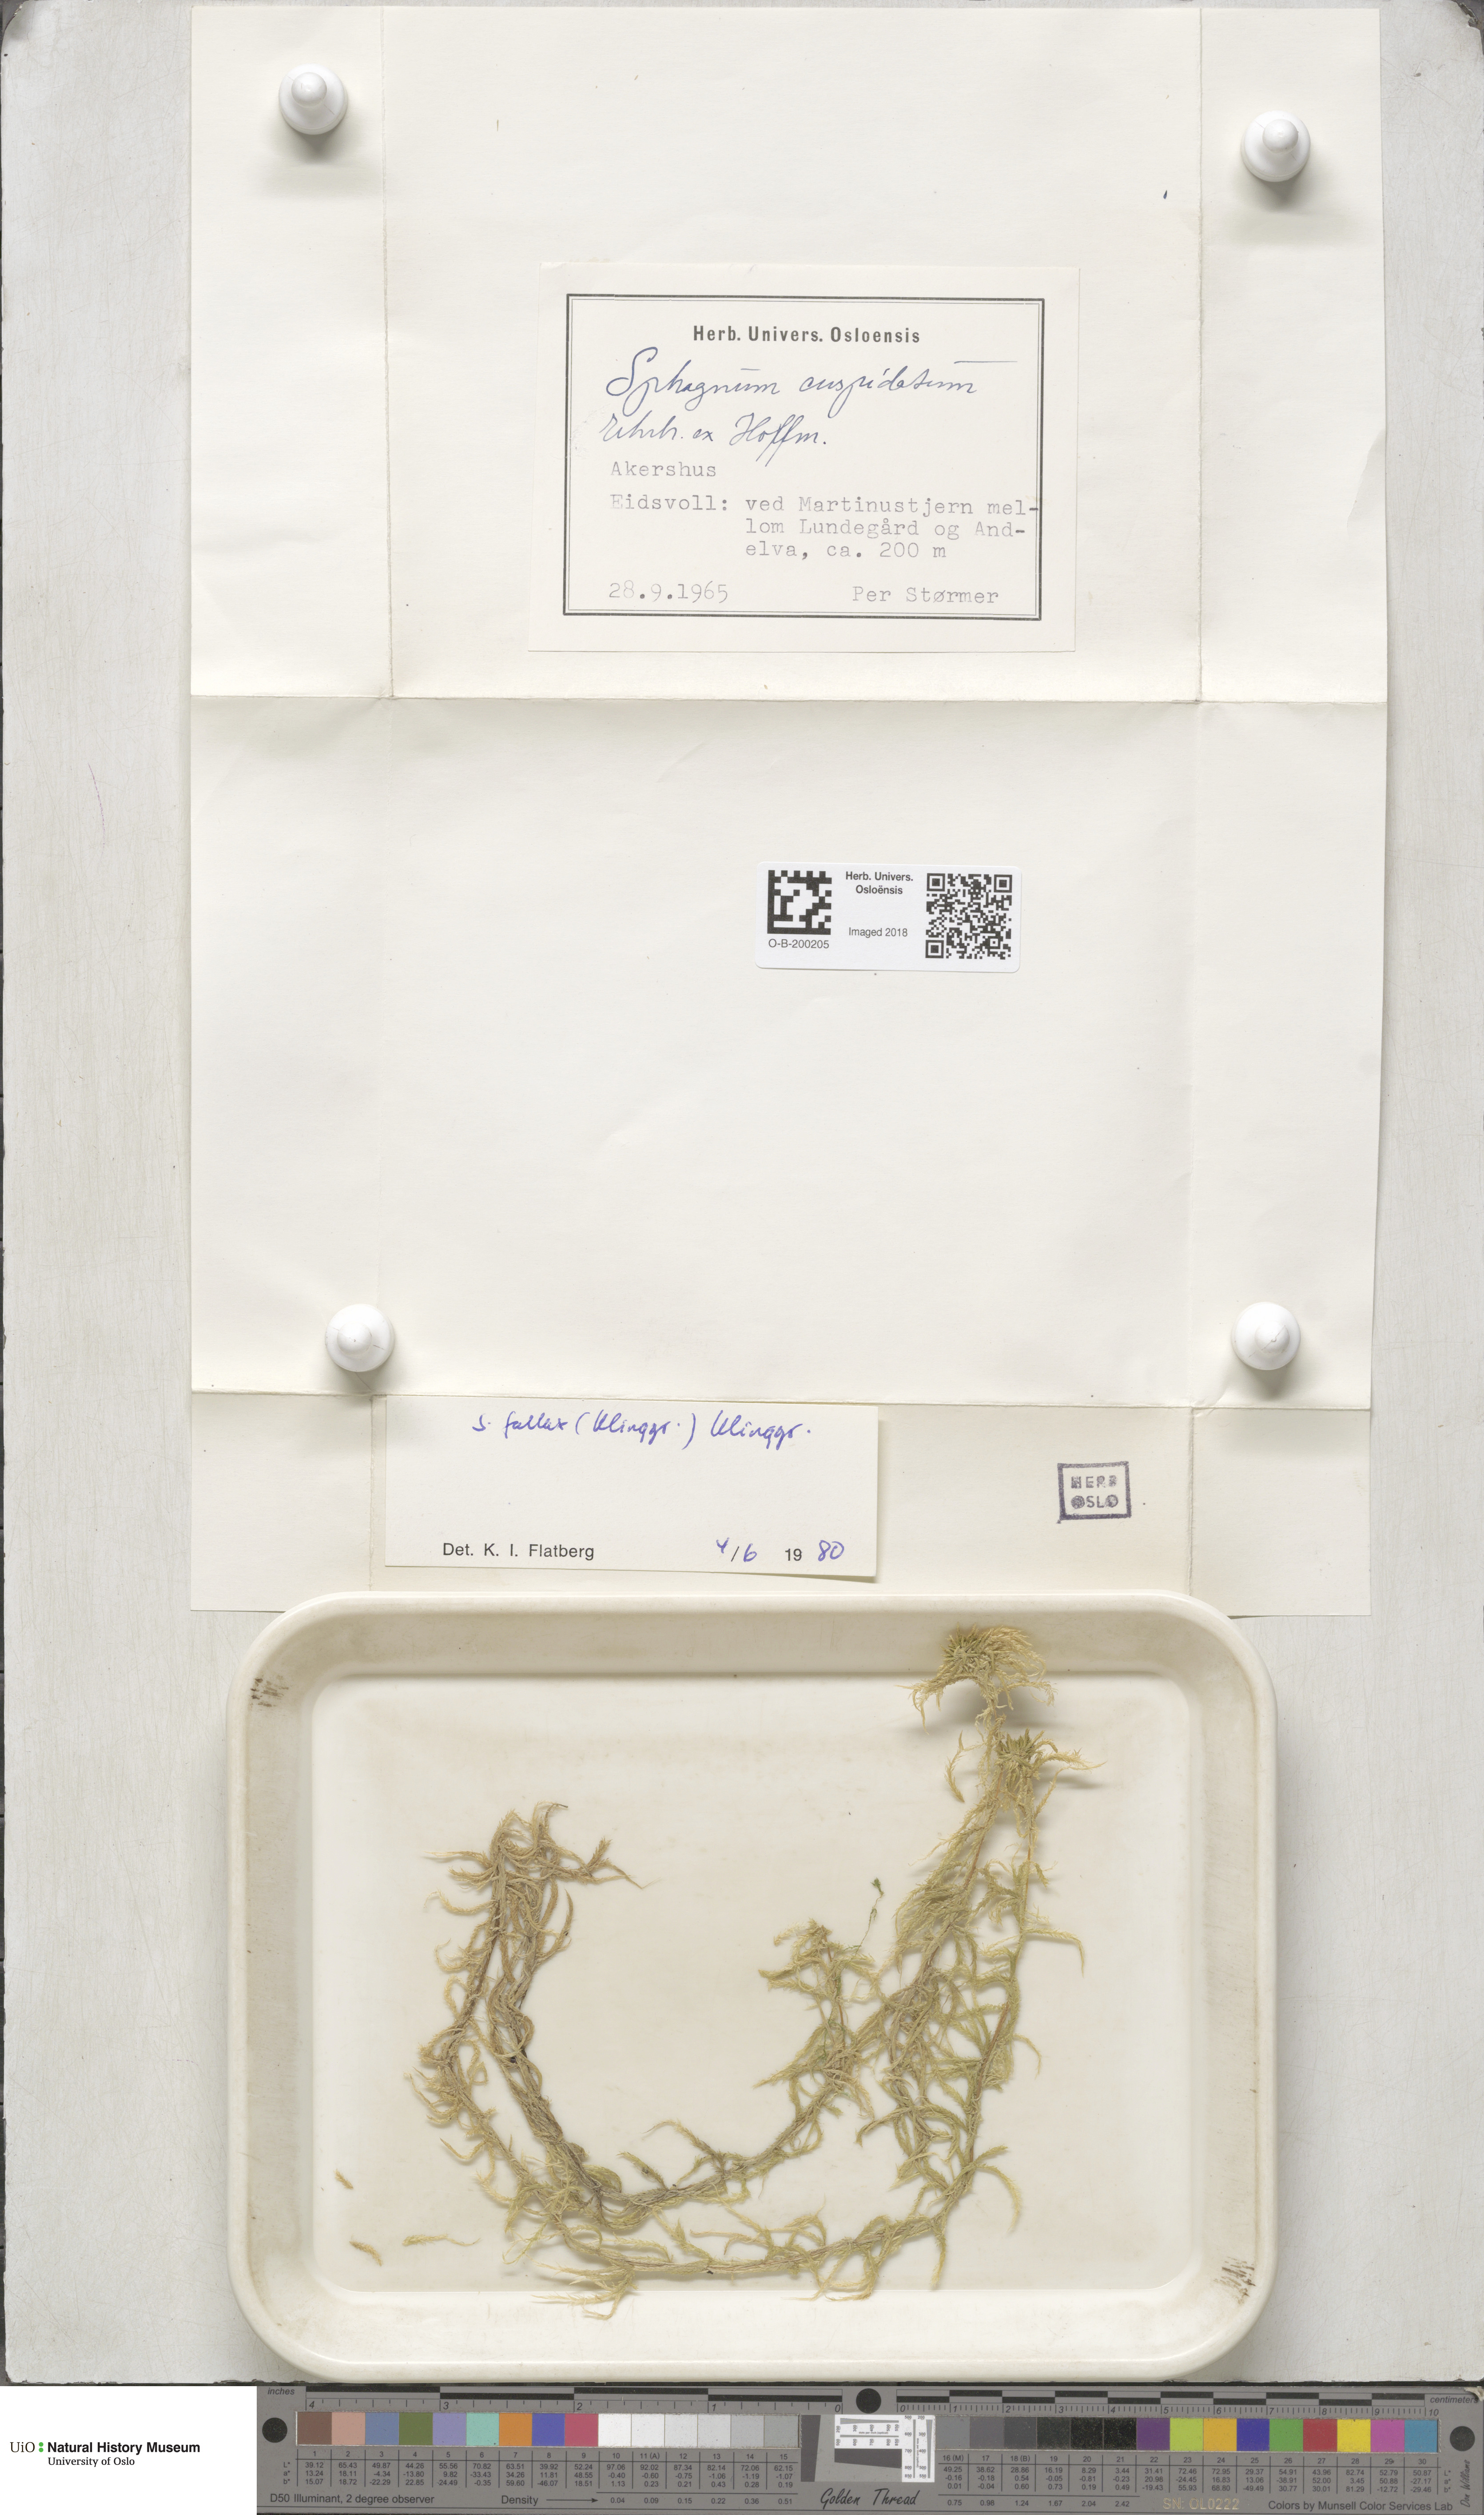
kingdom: Plantae
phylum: Bryophyta
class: Sphagnopsida
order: Sphagnales
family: Sphagnaceae
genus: Sphagnum
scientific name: Sphagnum fallax
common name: Flat-top peat moss
